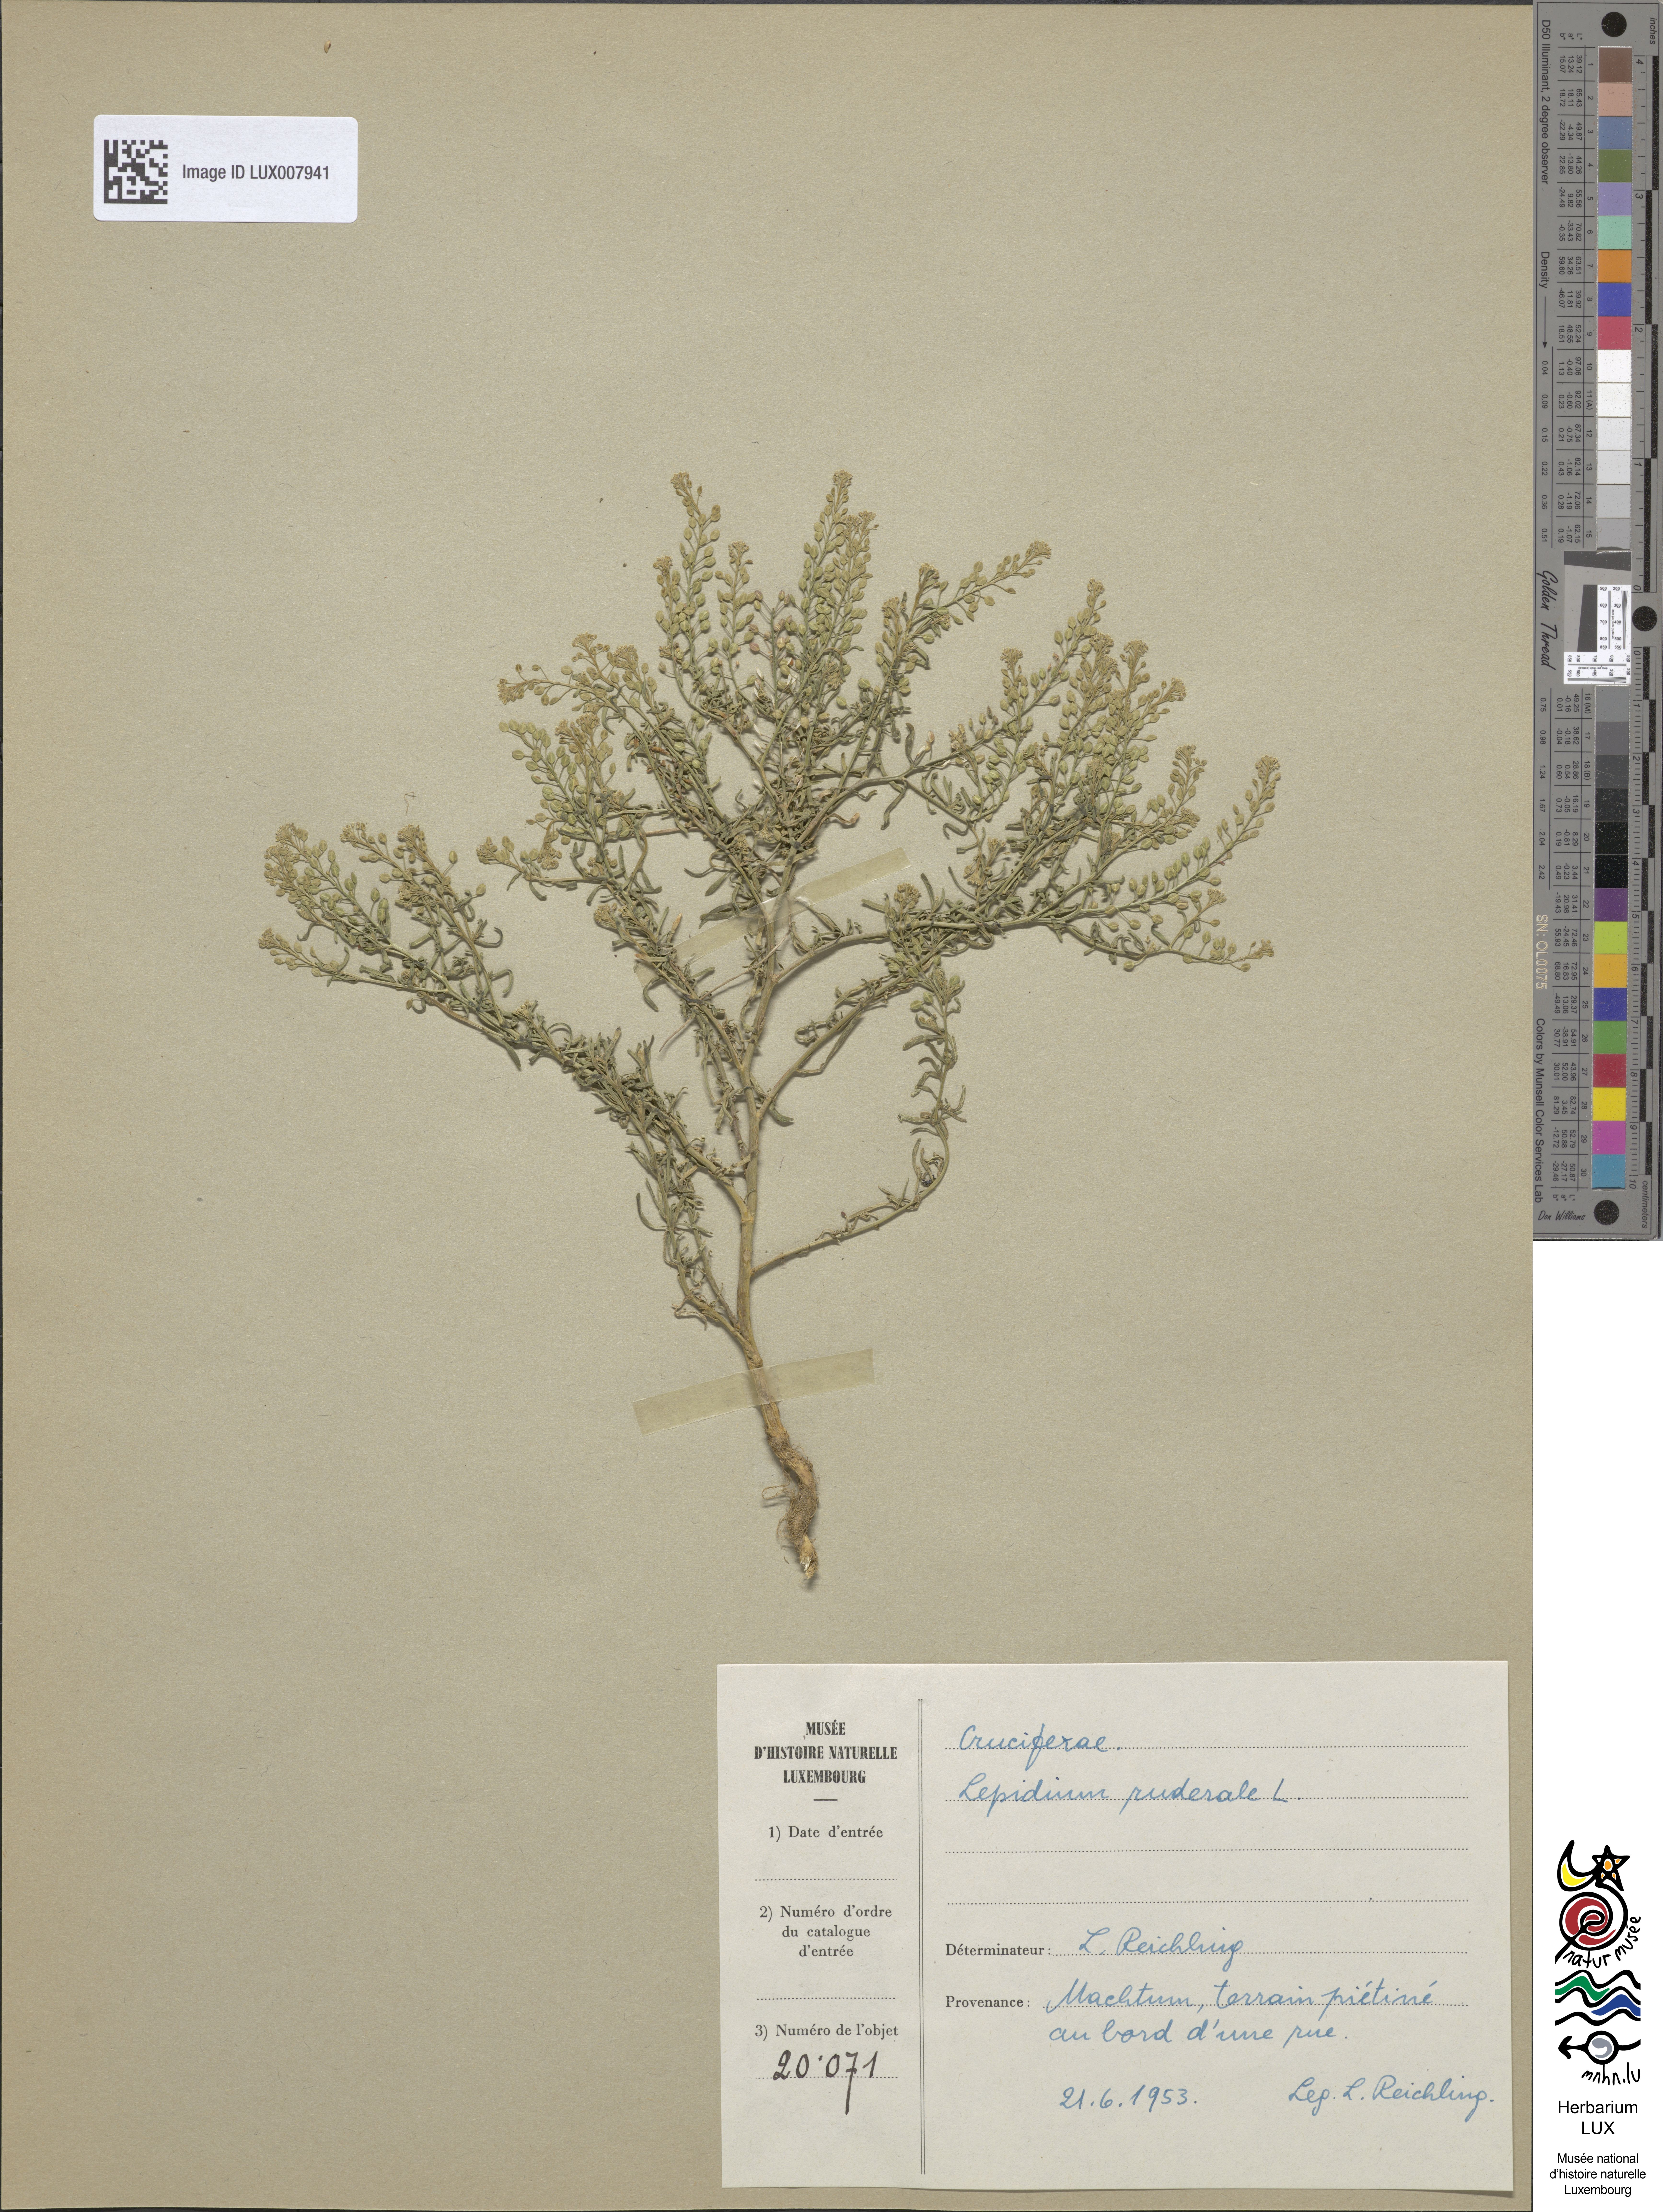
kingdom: Plantae
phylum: Tracheophyta
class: Magnoliopsida
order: Brassicales
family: Brassicaceae
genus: Lepidium
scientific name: Lepidium ruderale
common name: Narrow-leaved pepperwort
